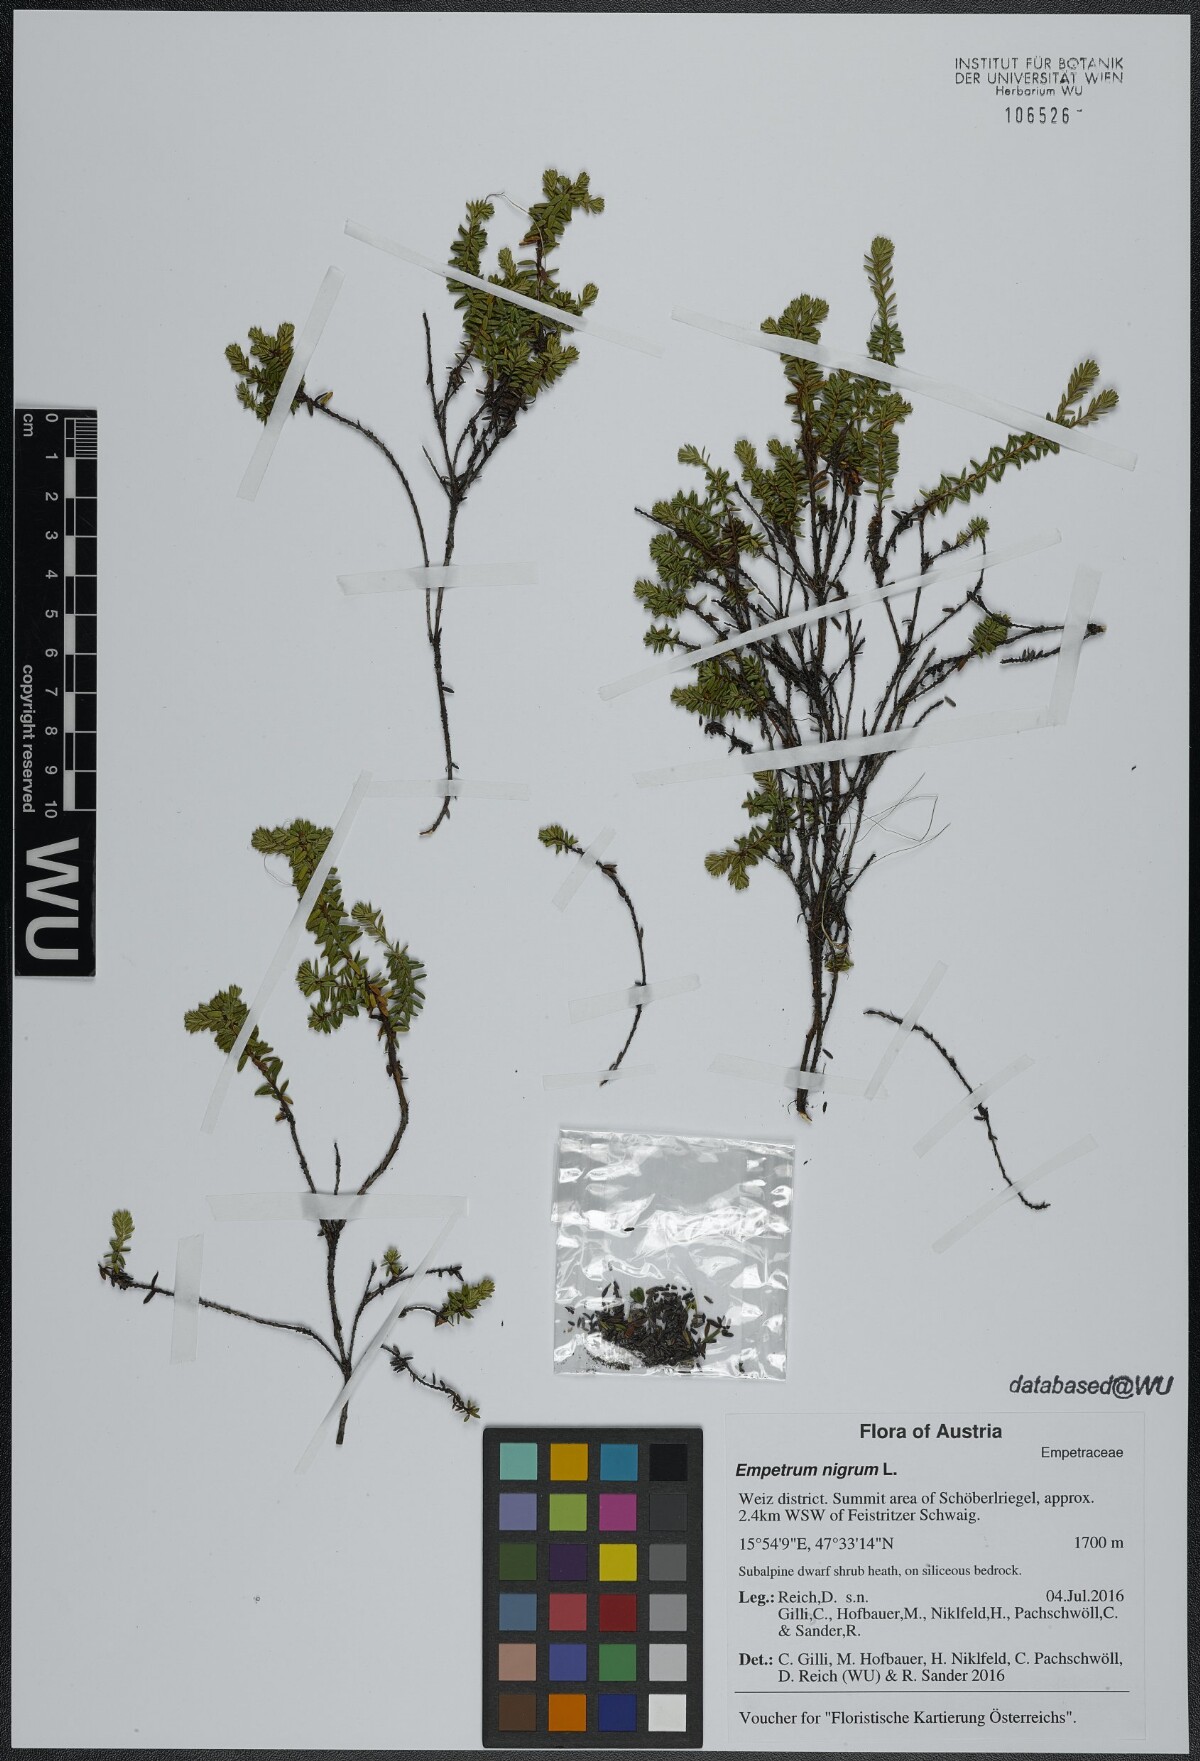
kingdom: Plantae
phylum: Tracheophyta
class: Magnoliopsida
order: Ericales
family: Ericaceae
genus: Empetrum
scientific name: Empetrum nigrum
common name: Black crowberry
